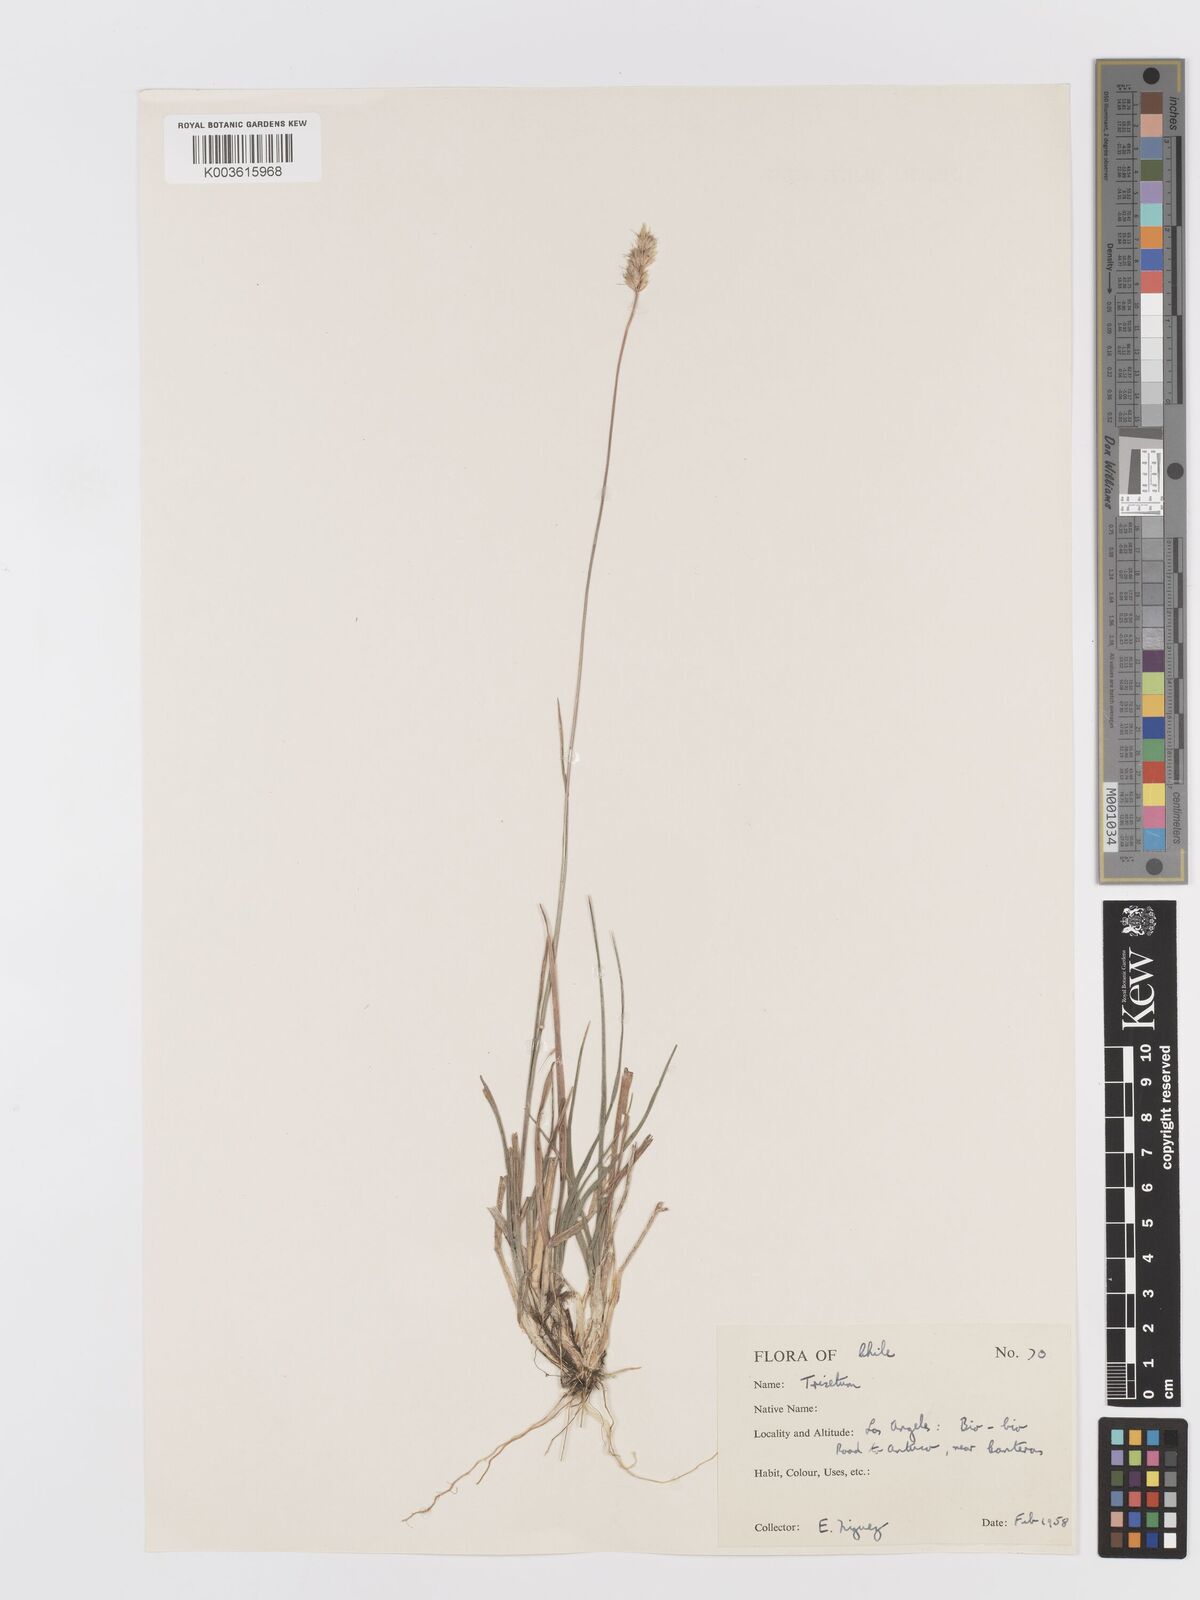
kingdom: Plantae
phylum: Tracheophyta
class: Liliopsida
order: Poales
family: Poaceae
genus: Trisetum
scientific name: Trisetum
